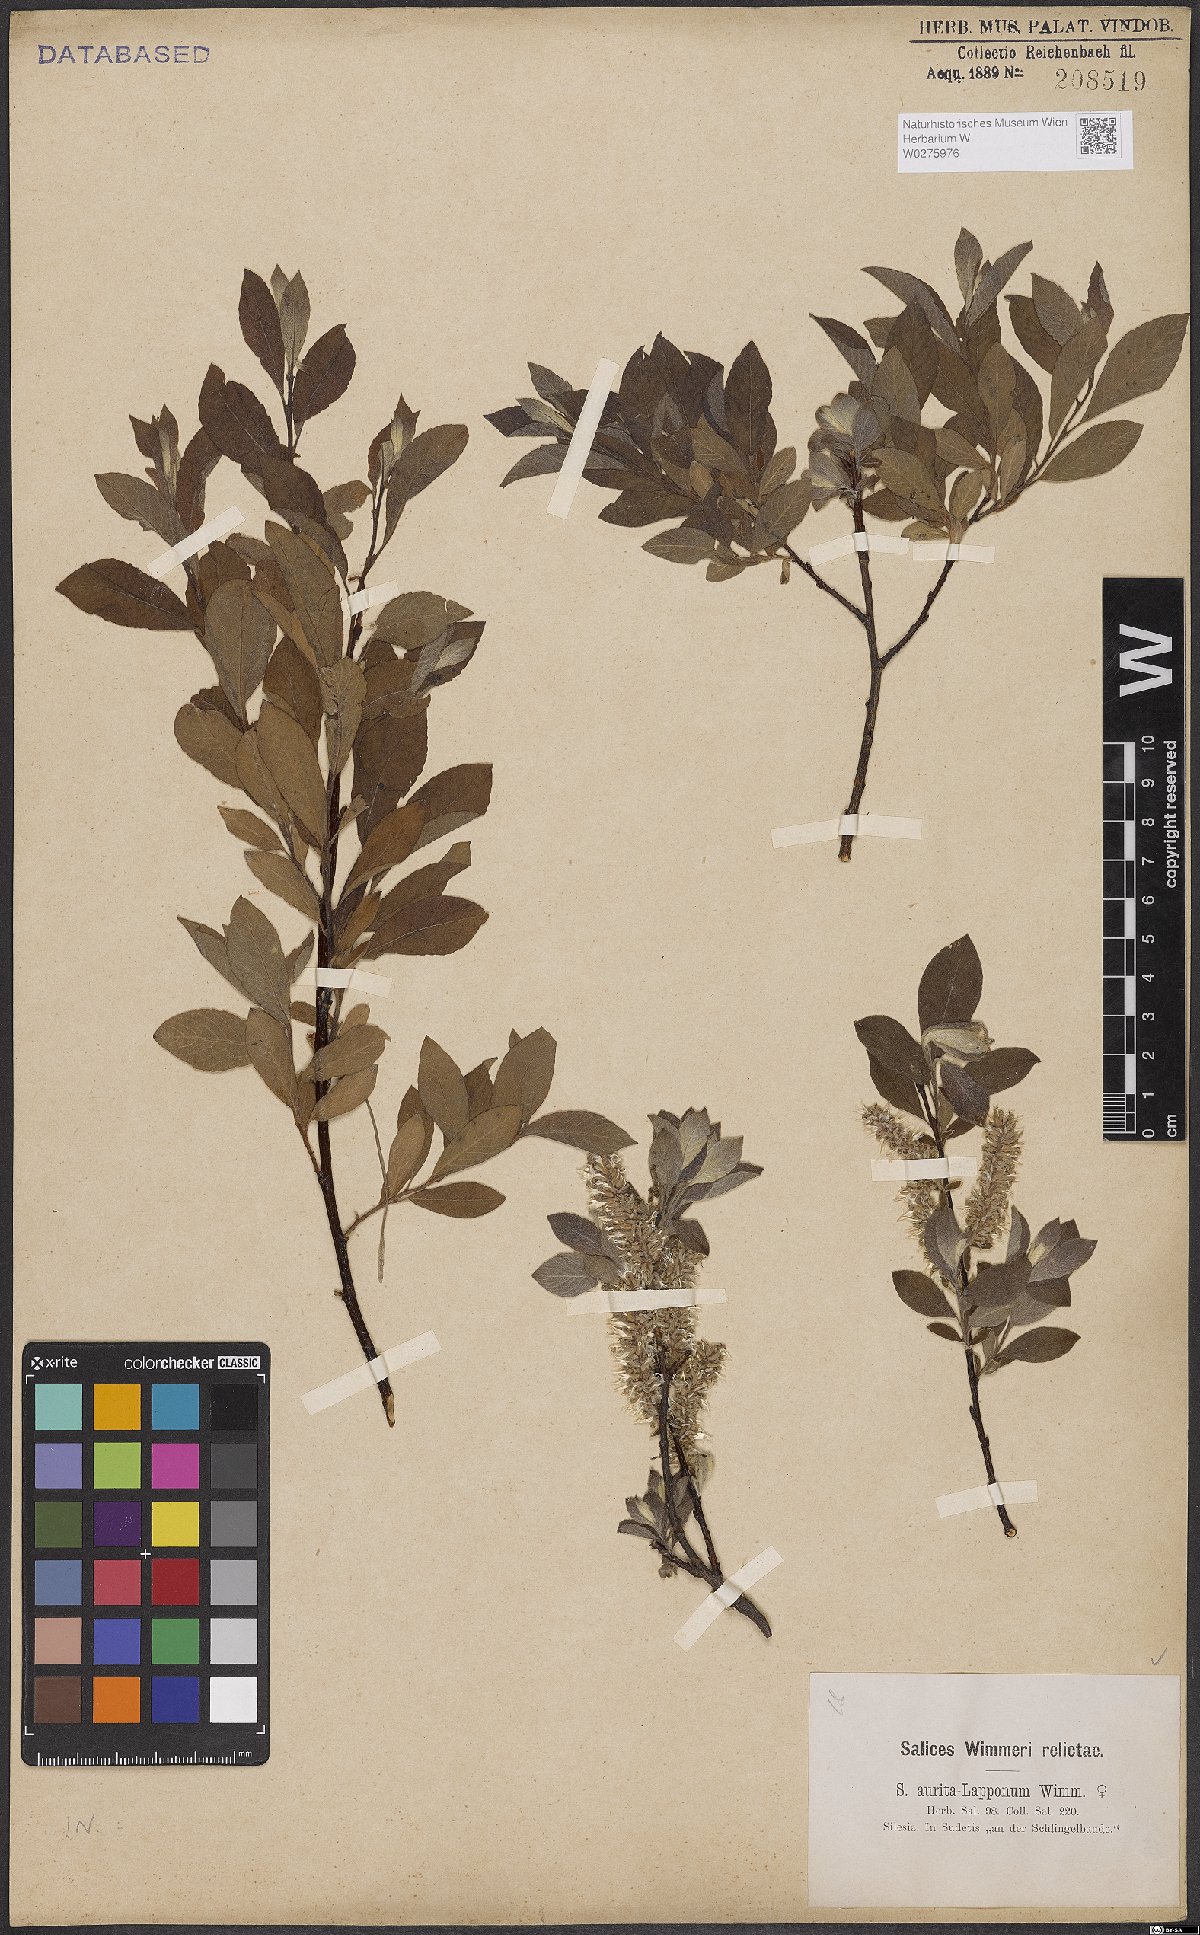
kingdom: Plantae
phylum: Tracheophyta
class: Magnoliopsida
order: Malpighiales
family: Salicaceae
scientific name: Salicaceae
